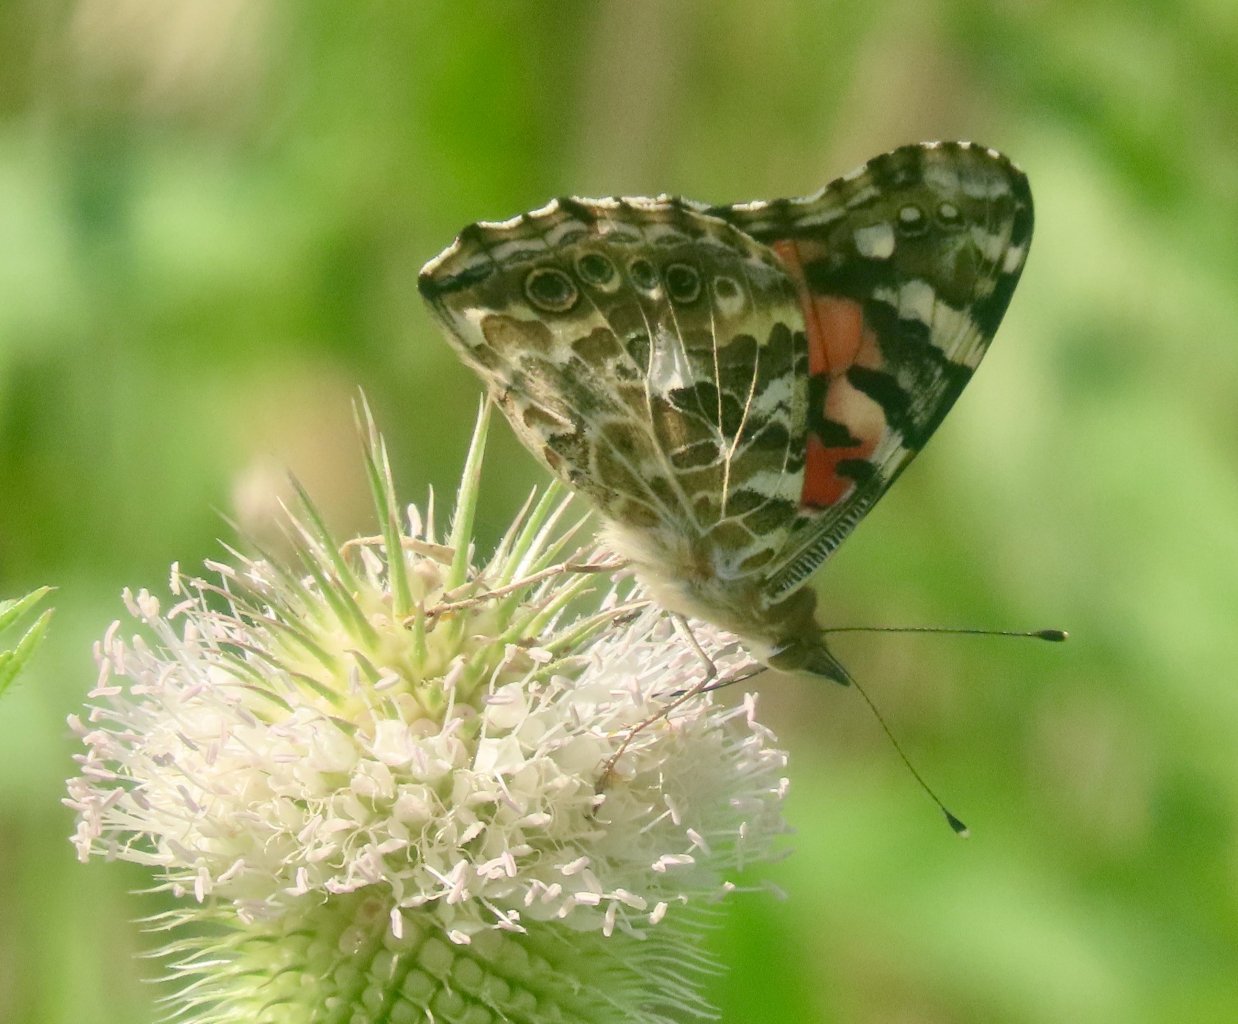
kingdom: Animalia
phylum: Arthropoda
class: Insecta
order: Lepidoptera
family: Nymphalidae
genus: Vanessa
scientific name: Vanessa cardui
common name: Painted Lady
